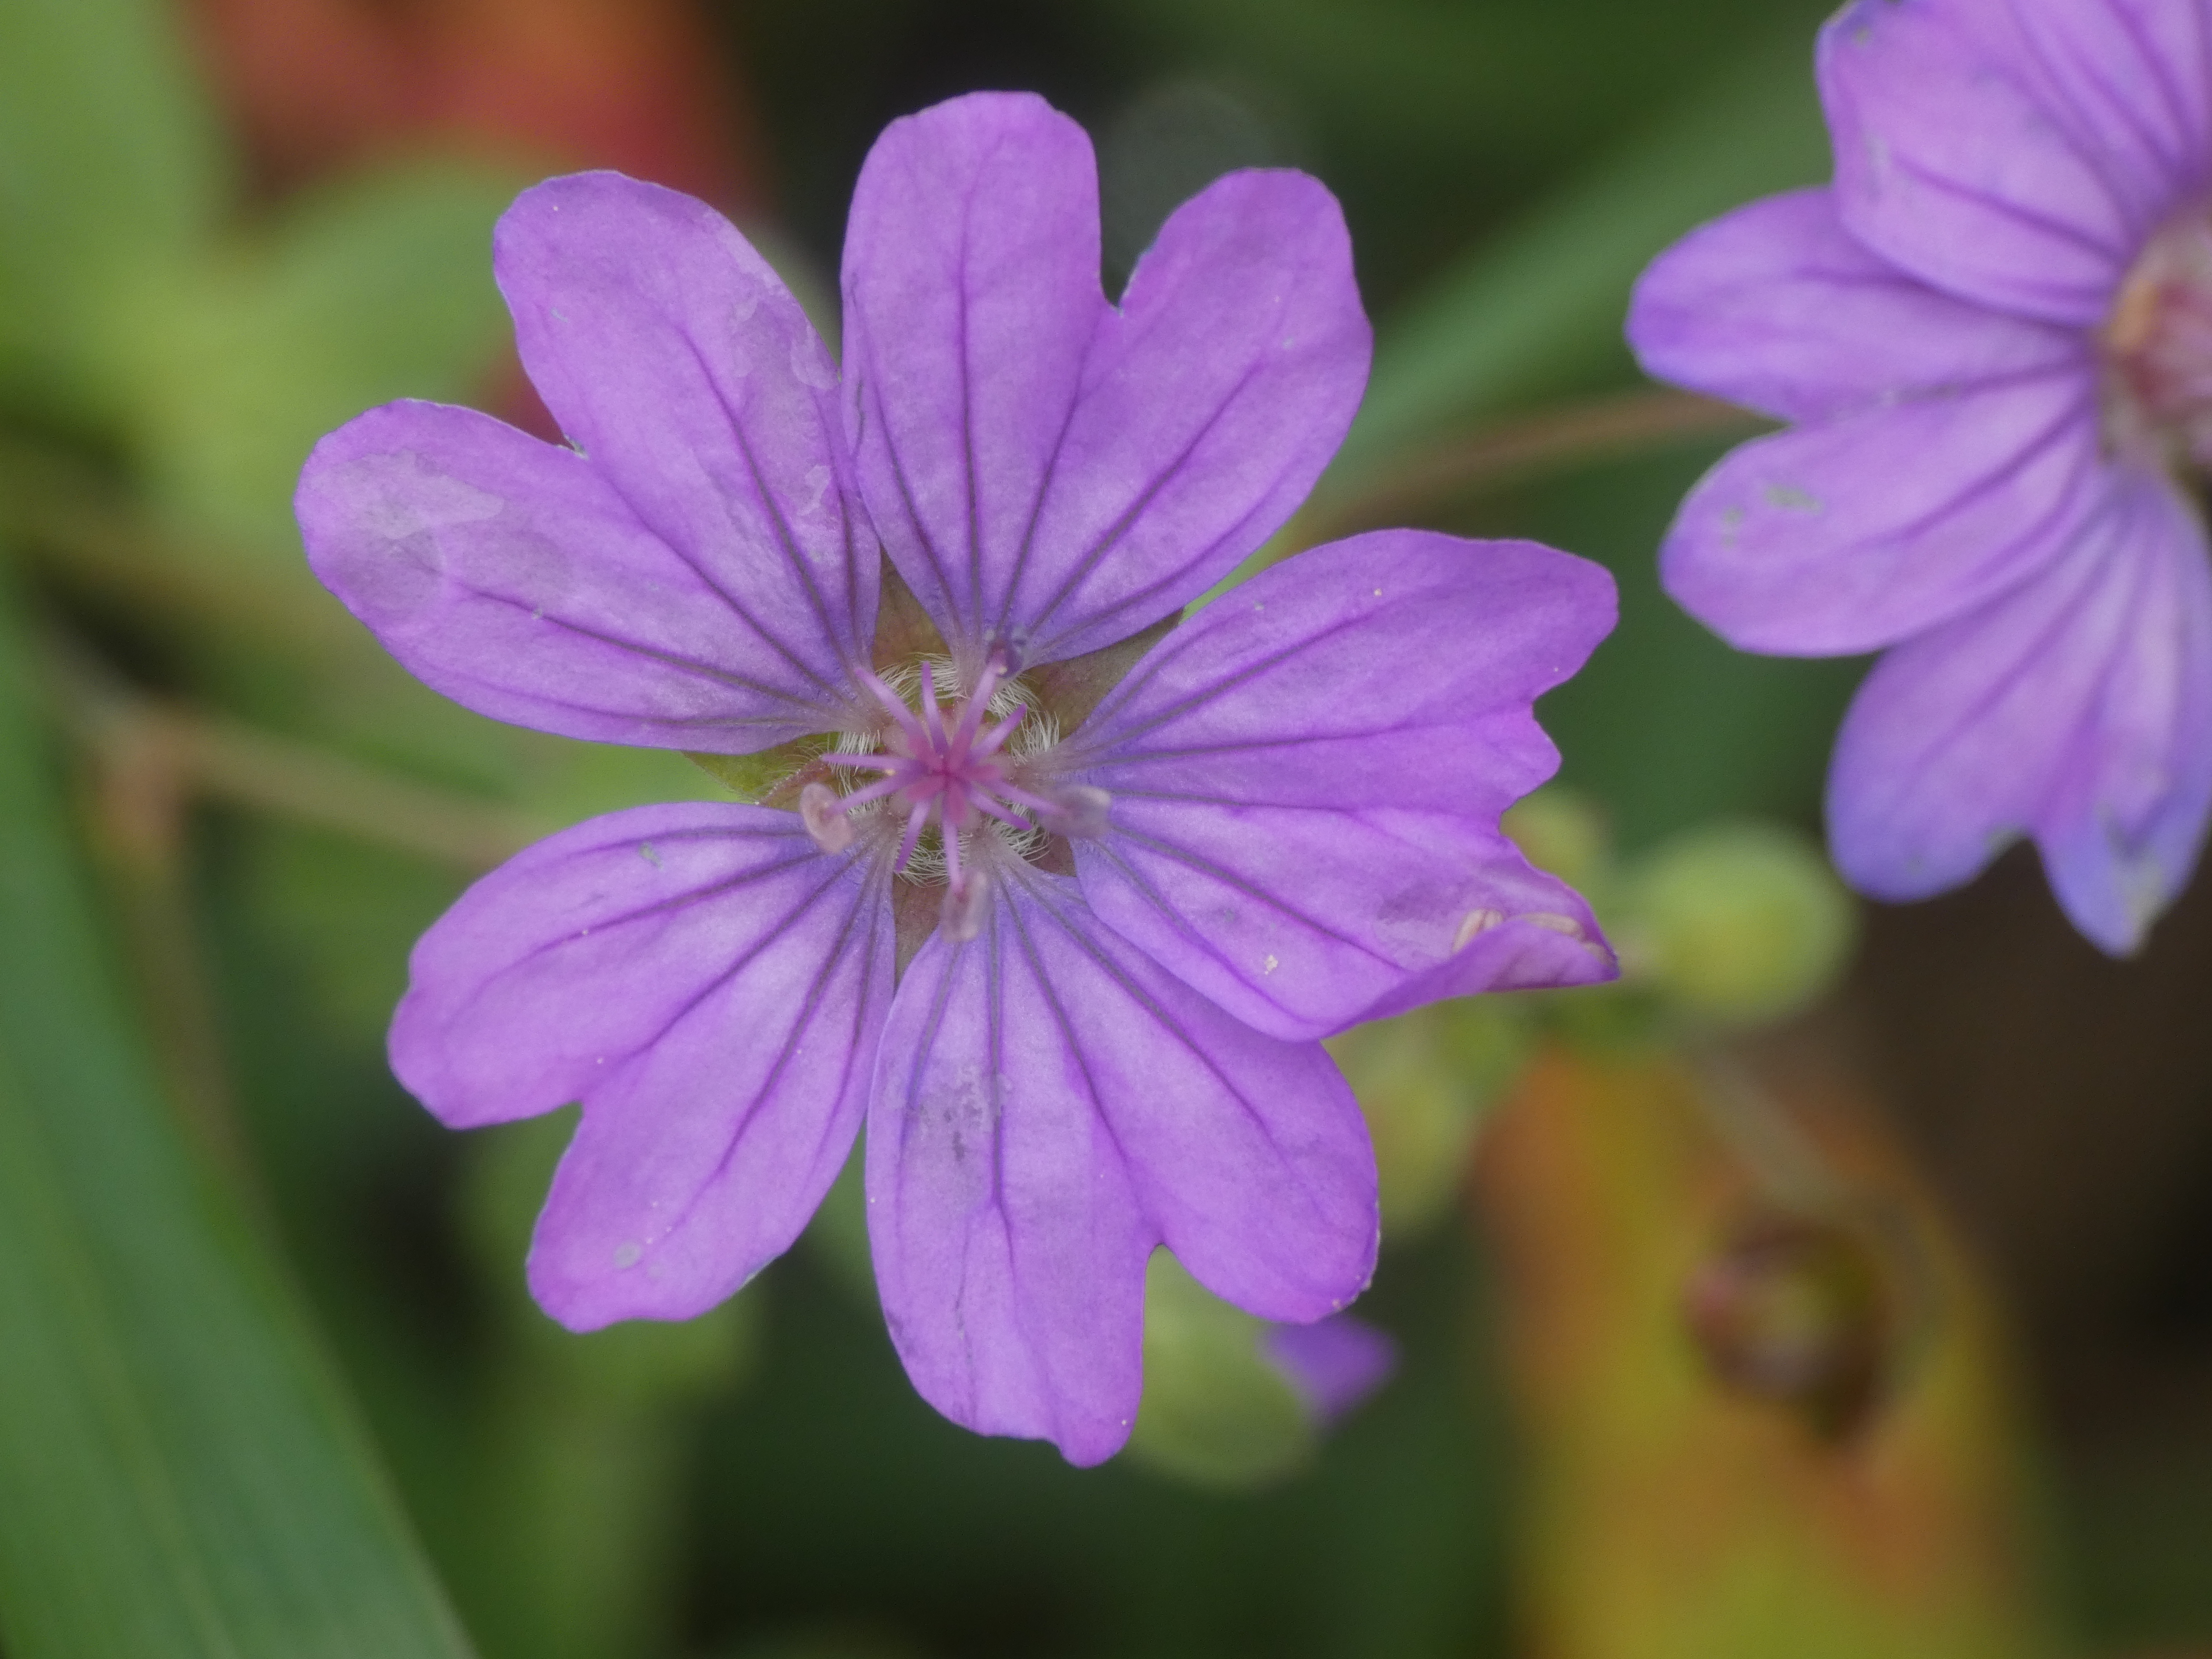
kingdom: Plantae
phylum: Tracheophyta
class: Magnoliopsida
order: Geraniales
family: Geraniaceae
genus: Geranium
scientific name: Geranium pyrenaicum
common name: Pyrenæisk storkenæb
